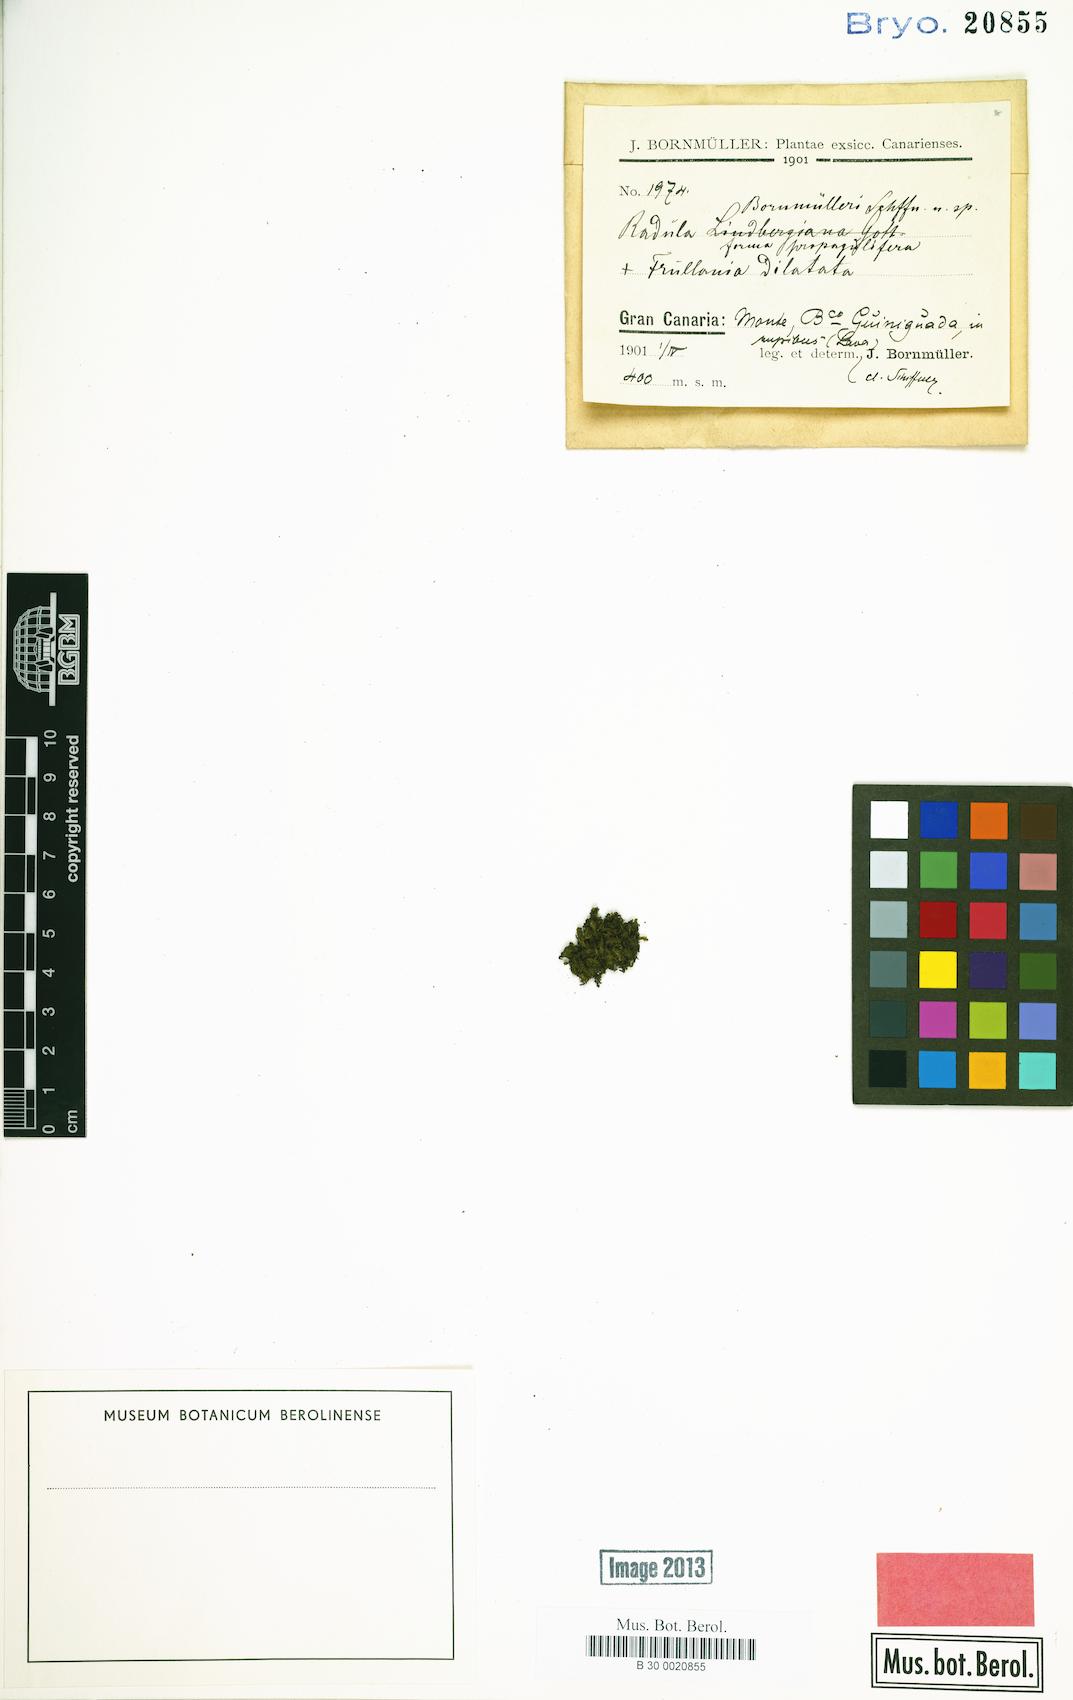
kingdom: Plantae
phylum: Marchantiophyta
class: Jungermanniopsida
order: Porellales
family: Radulaceae
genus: Radula
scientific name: Radula lindenbergiana
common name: Lindenberg's scalewort
